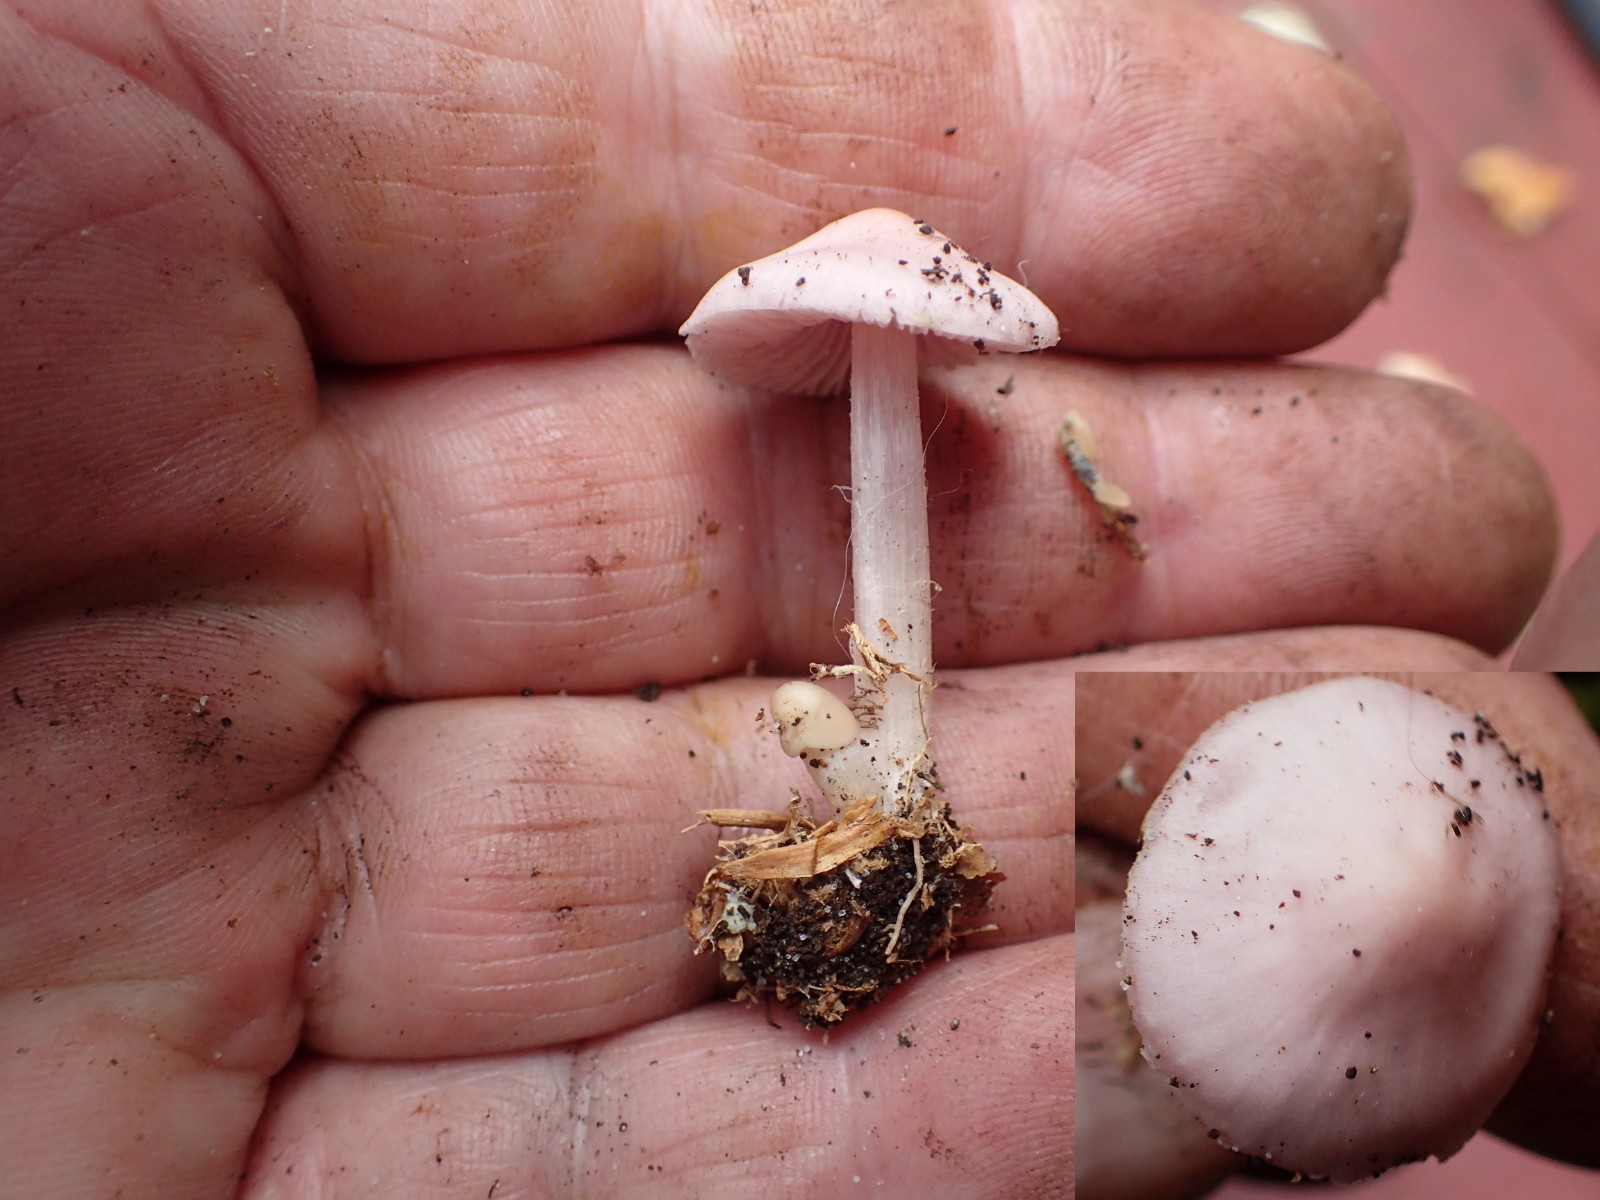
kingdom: Fungi
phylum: Basidiomycota
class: Agaricomycetes
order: Agaricales
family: Inocybaceae
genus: Inocybe
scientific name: Inocybe
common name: almindelig trævlhat
